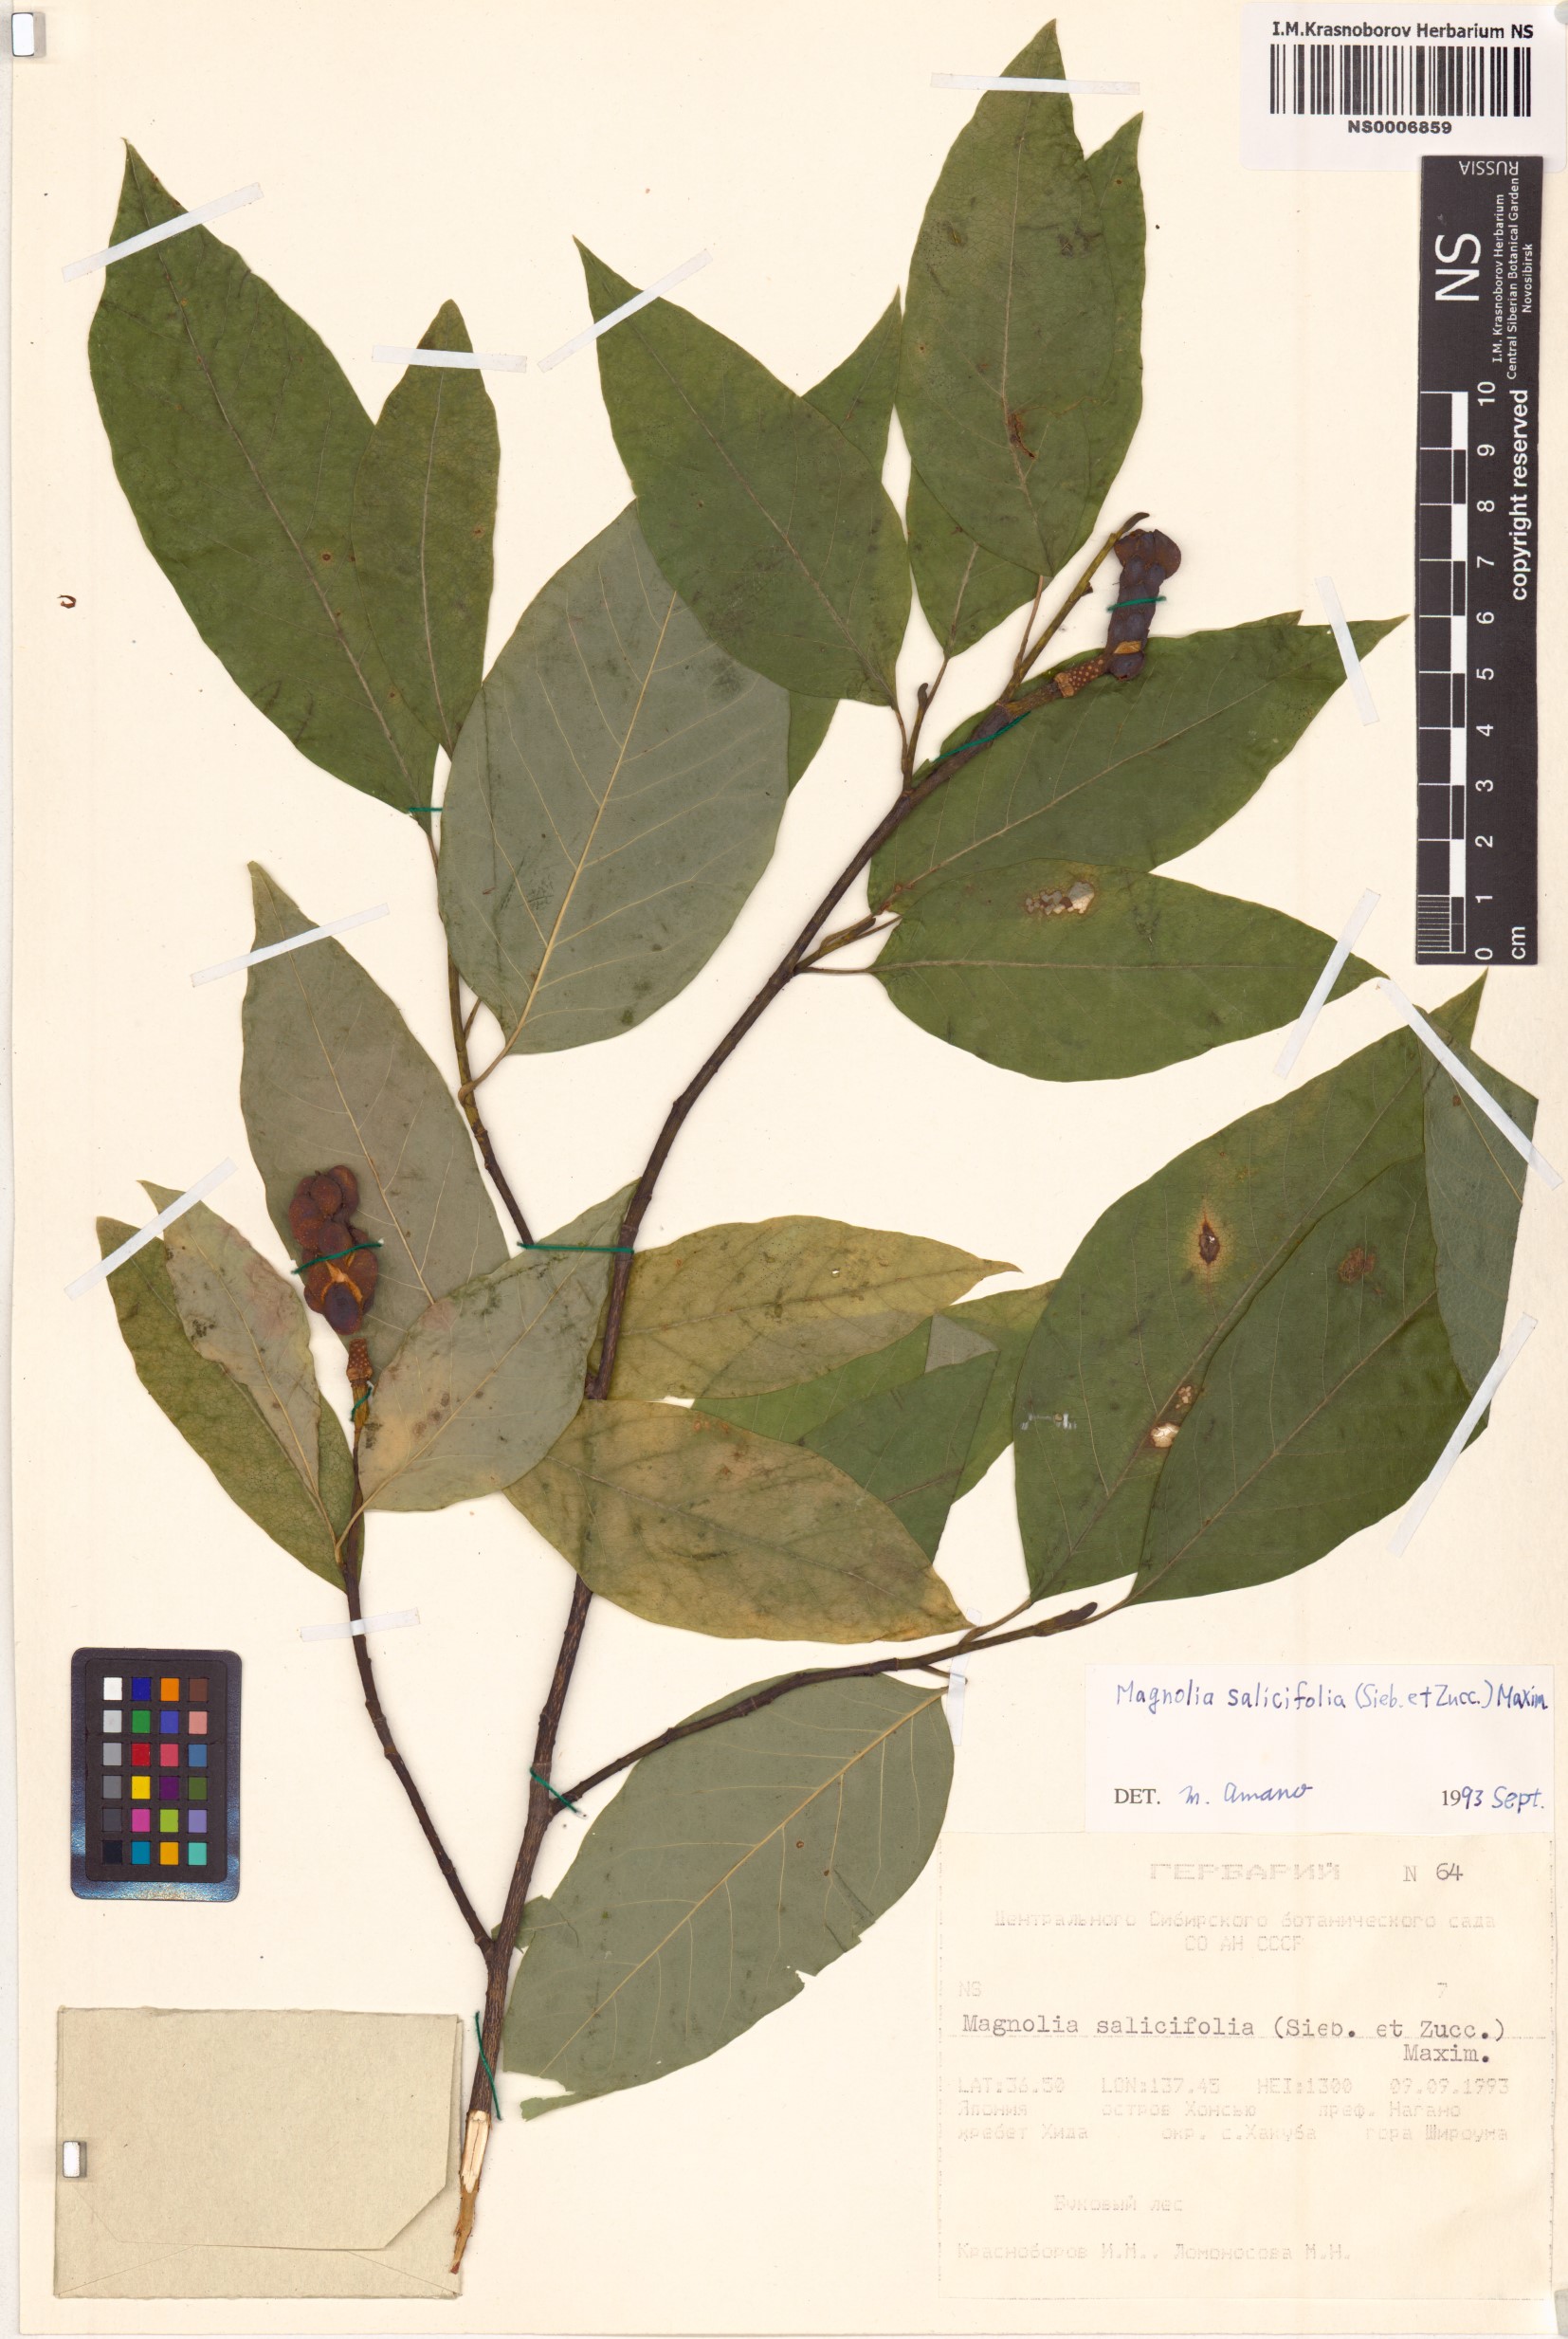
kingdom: Plantae
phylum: Tracheophyta
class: Magnoliopsida
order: Magnoliales
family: Magnoliaceae
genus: Magnolia
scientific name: Magnolia salicifolia
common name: Anise magnolia
